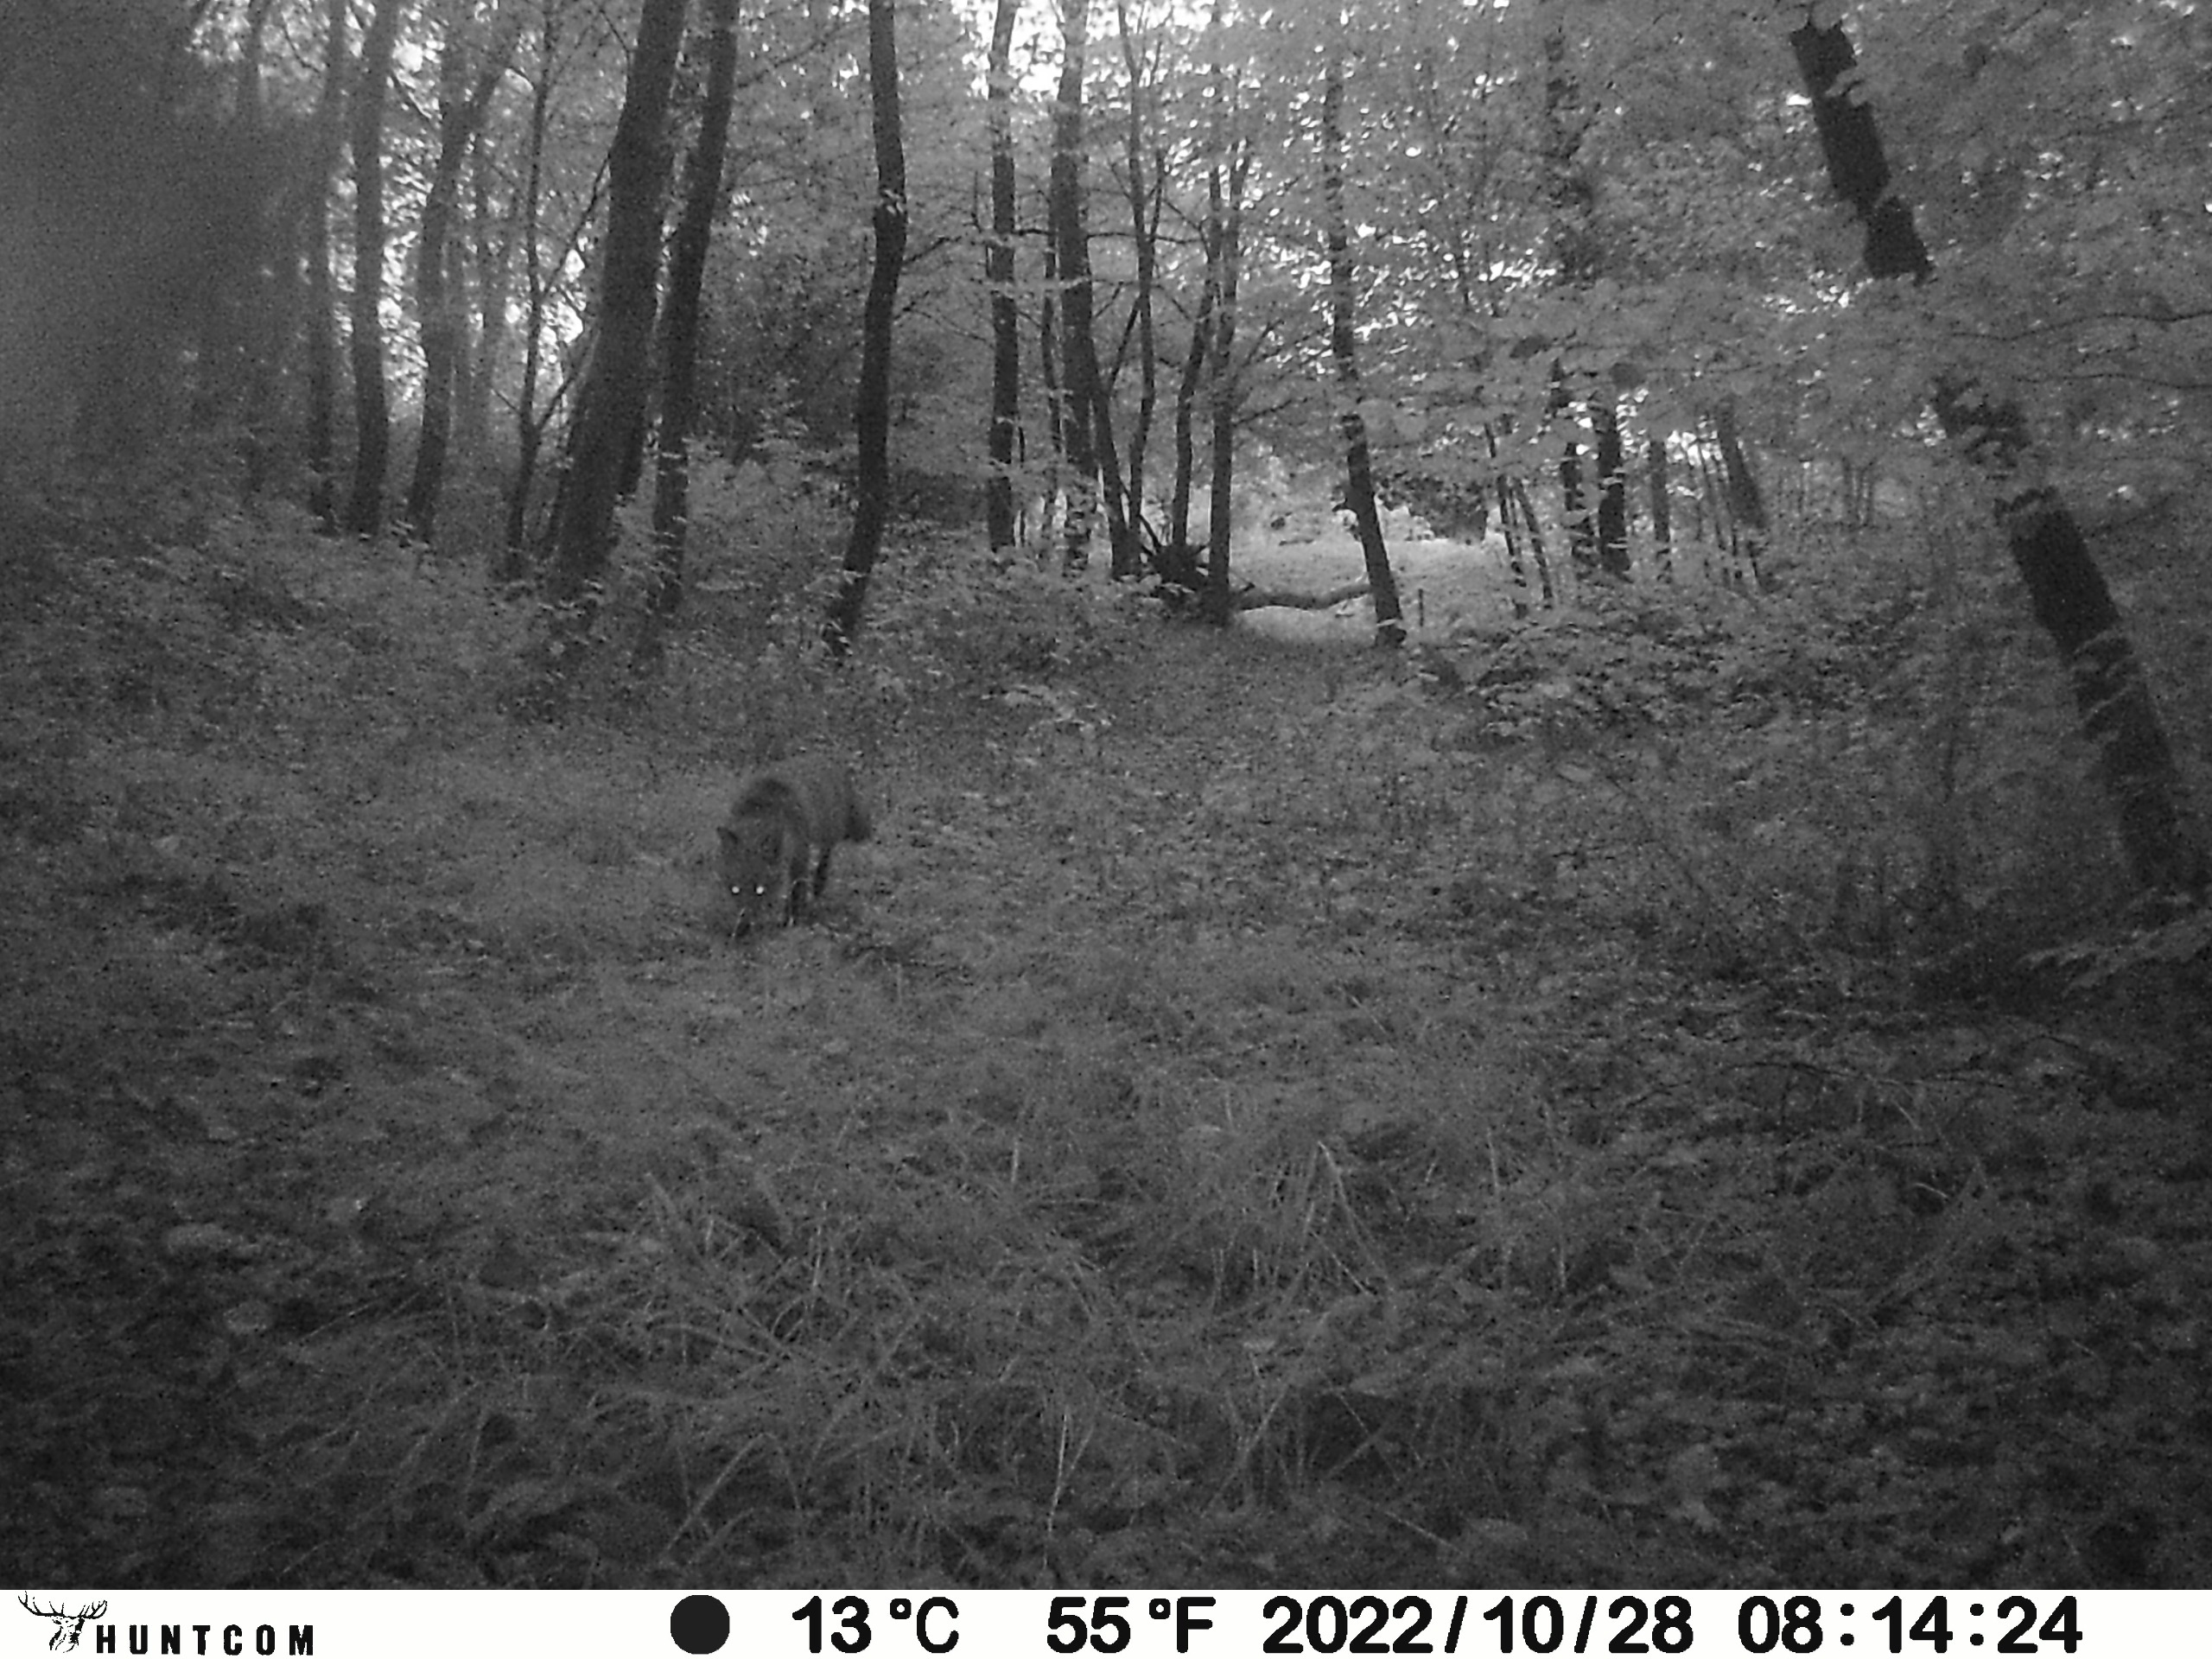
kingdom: Animalia
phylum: Chordata
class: Mammalia
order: Carnivora
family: Canidae
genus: Vulpes
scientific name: Vulpes vulpes
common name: Ræv
